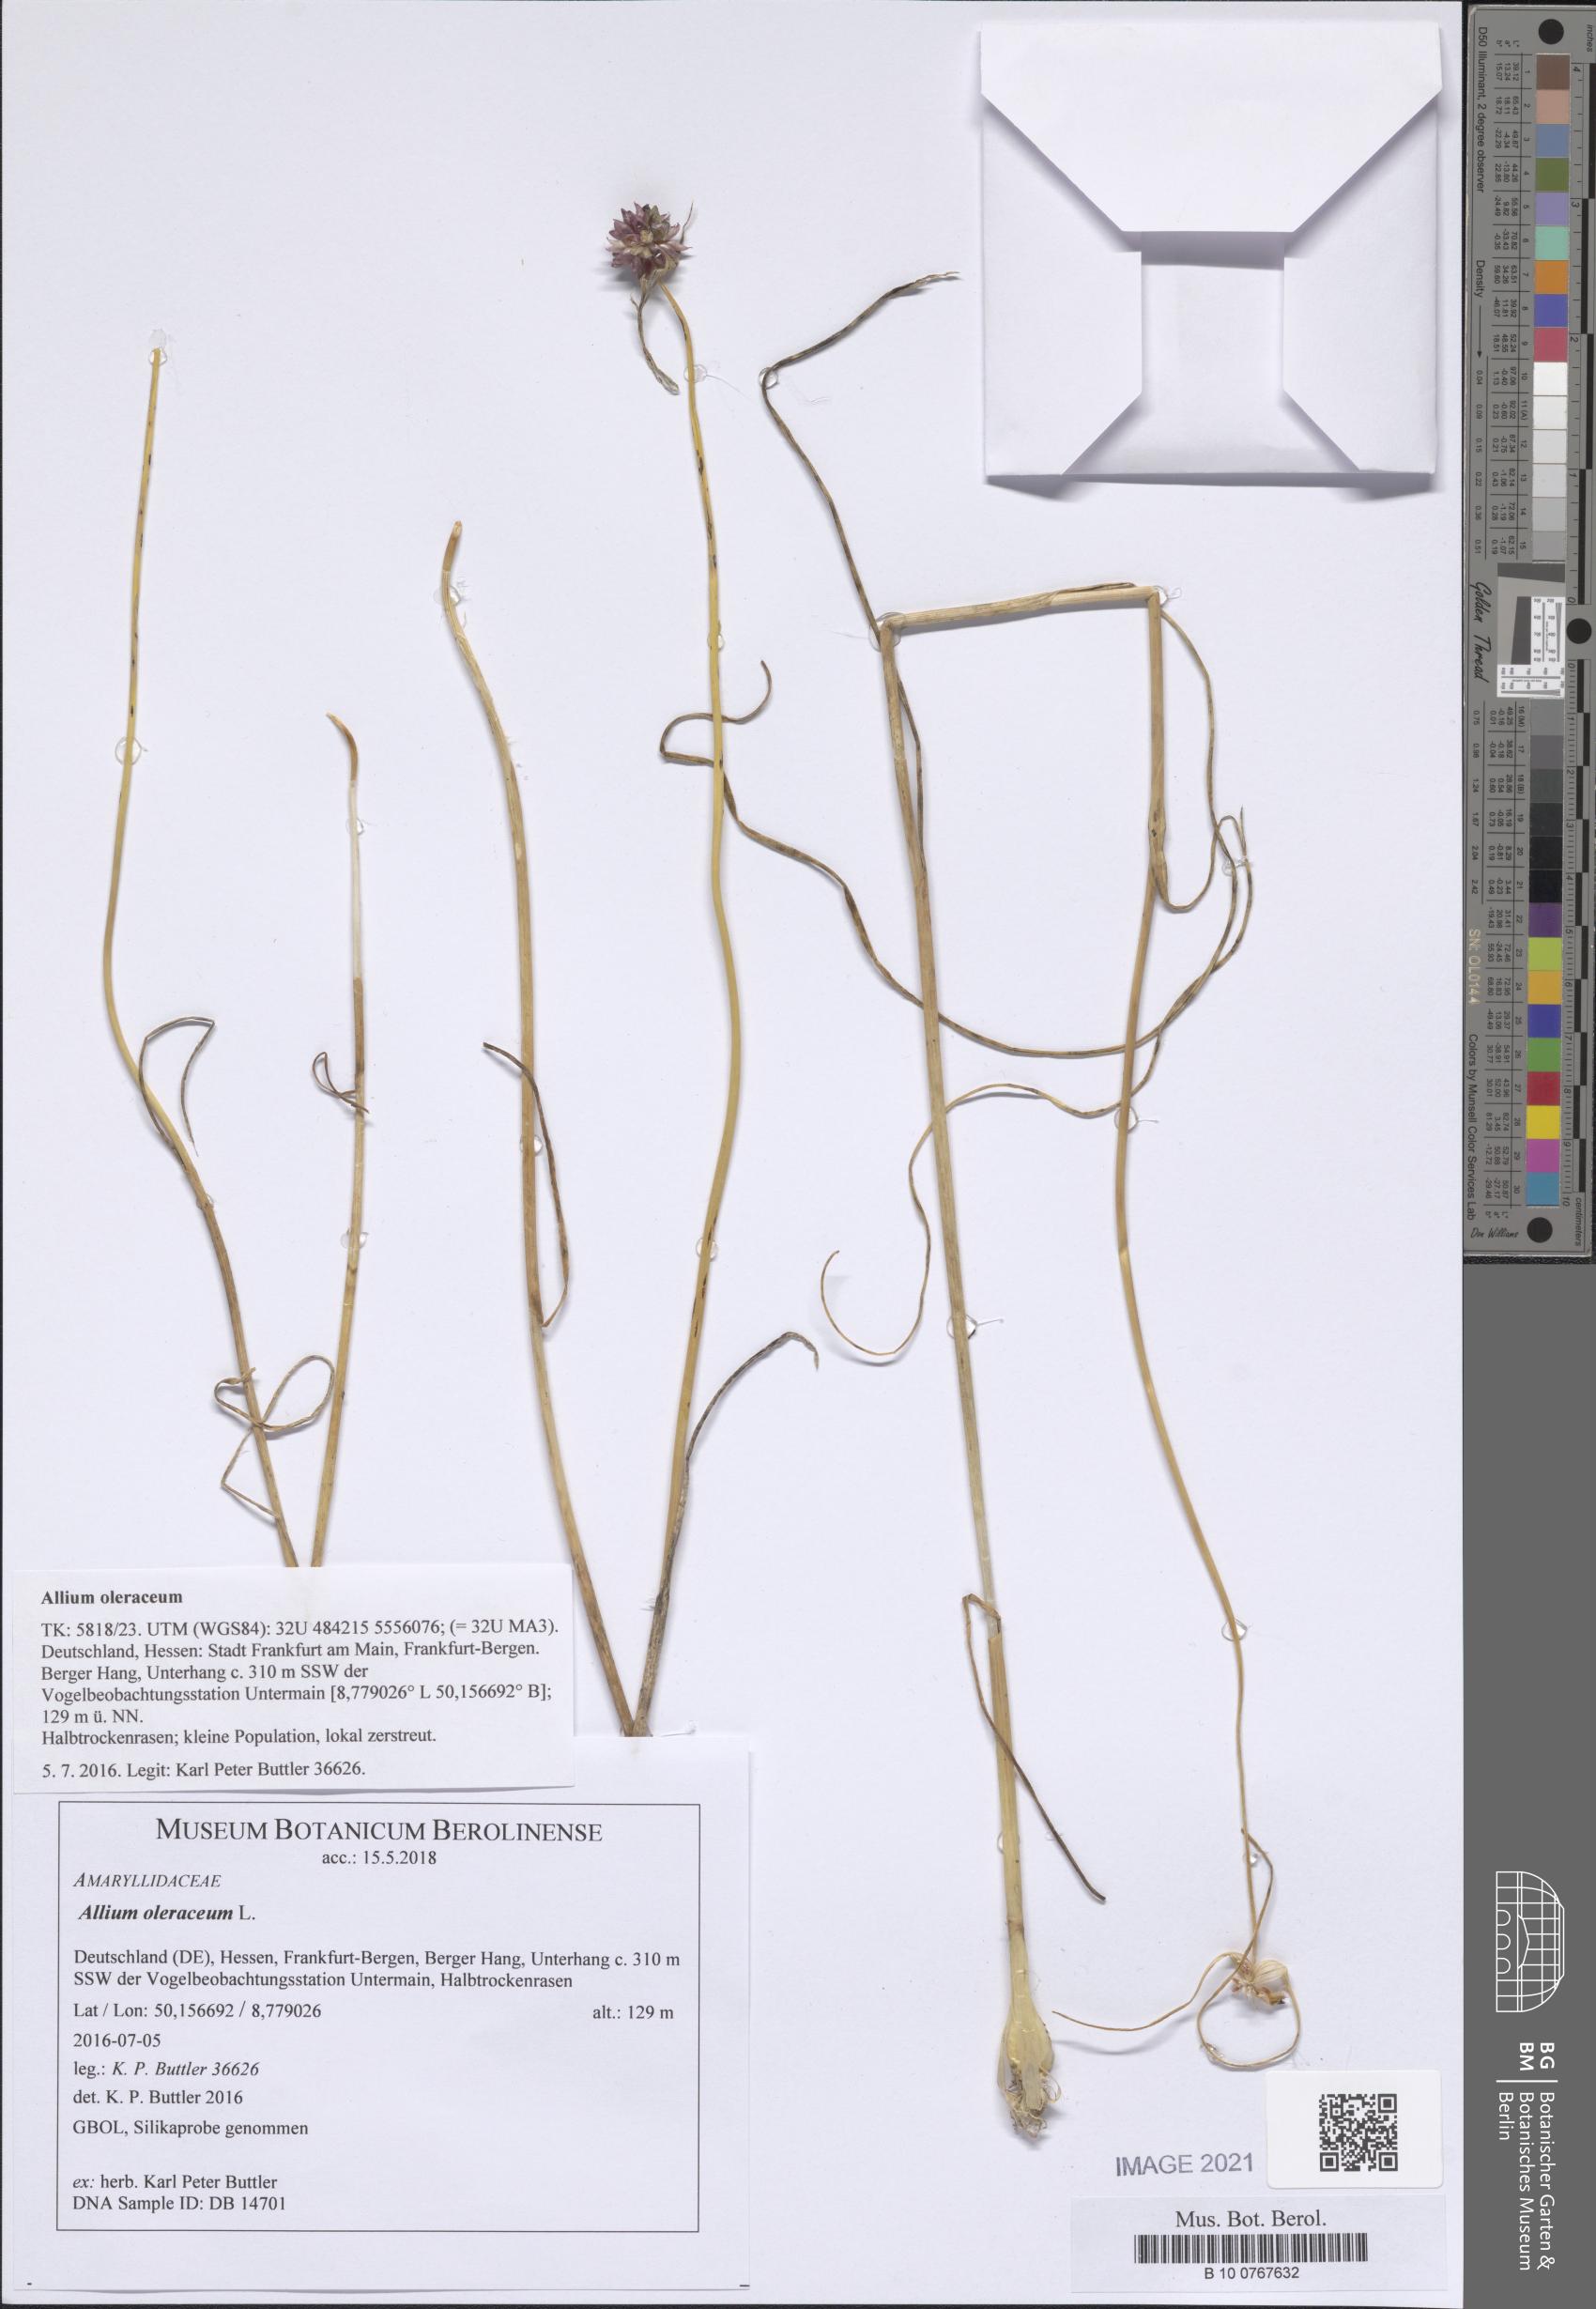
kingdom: Plantae
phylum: Tracheophyta
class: Liliopsida
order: Asparagales
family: Amaryllidaceae
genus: Allium
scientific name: Allium oleraceum
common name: Field garlic
